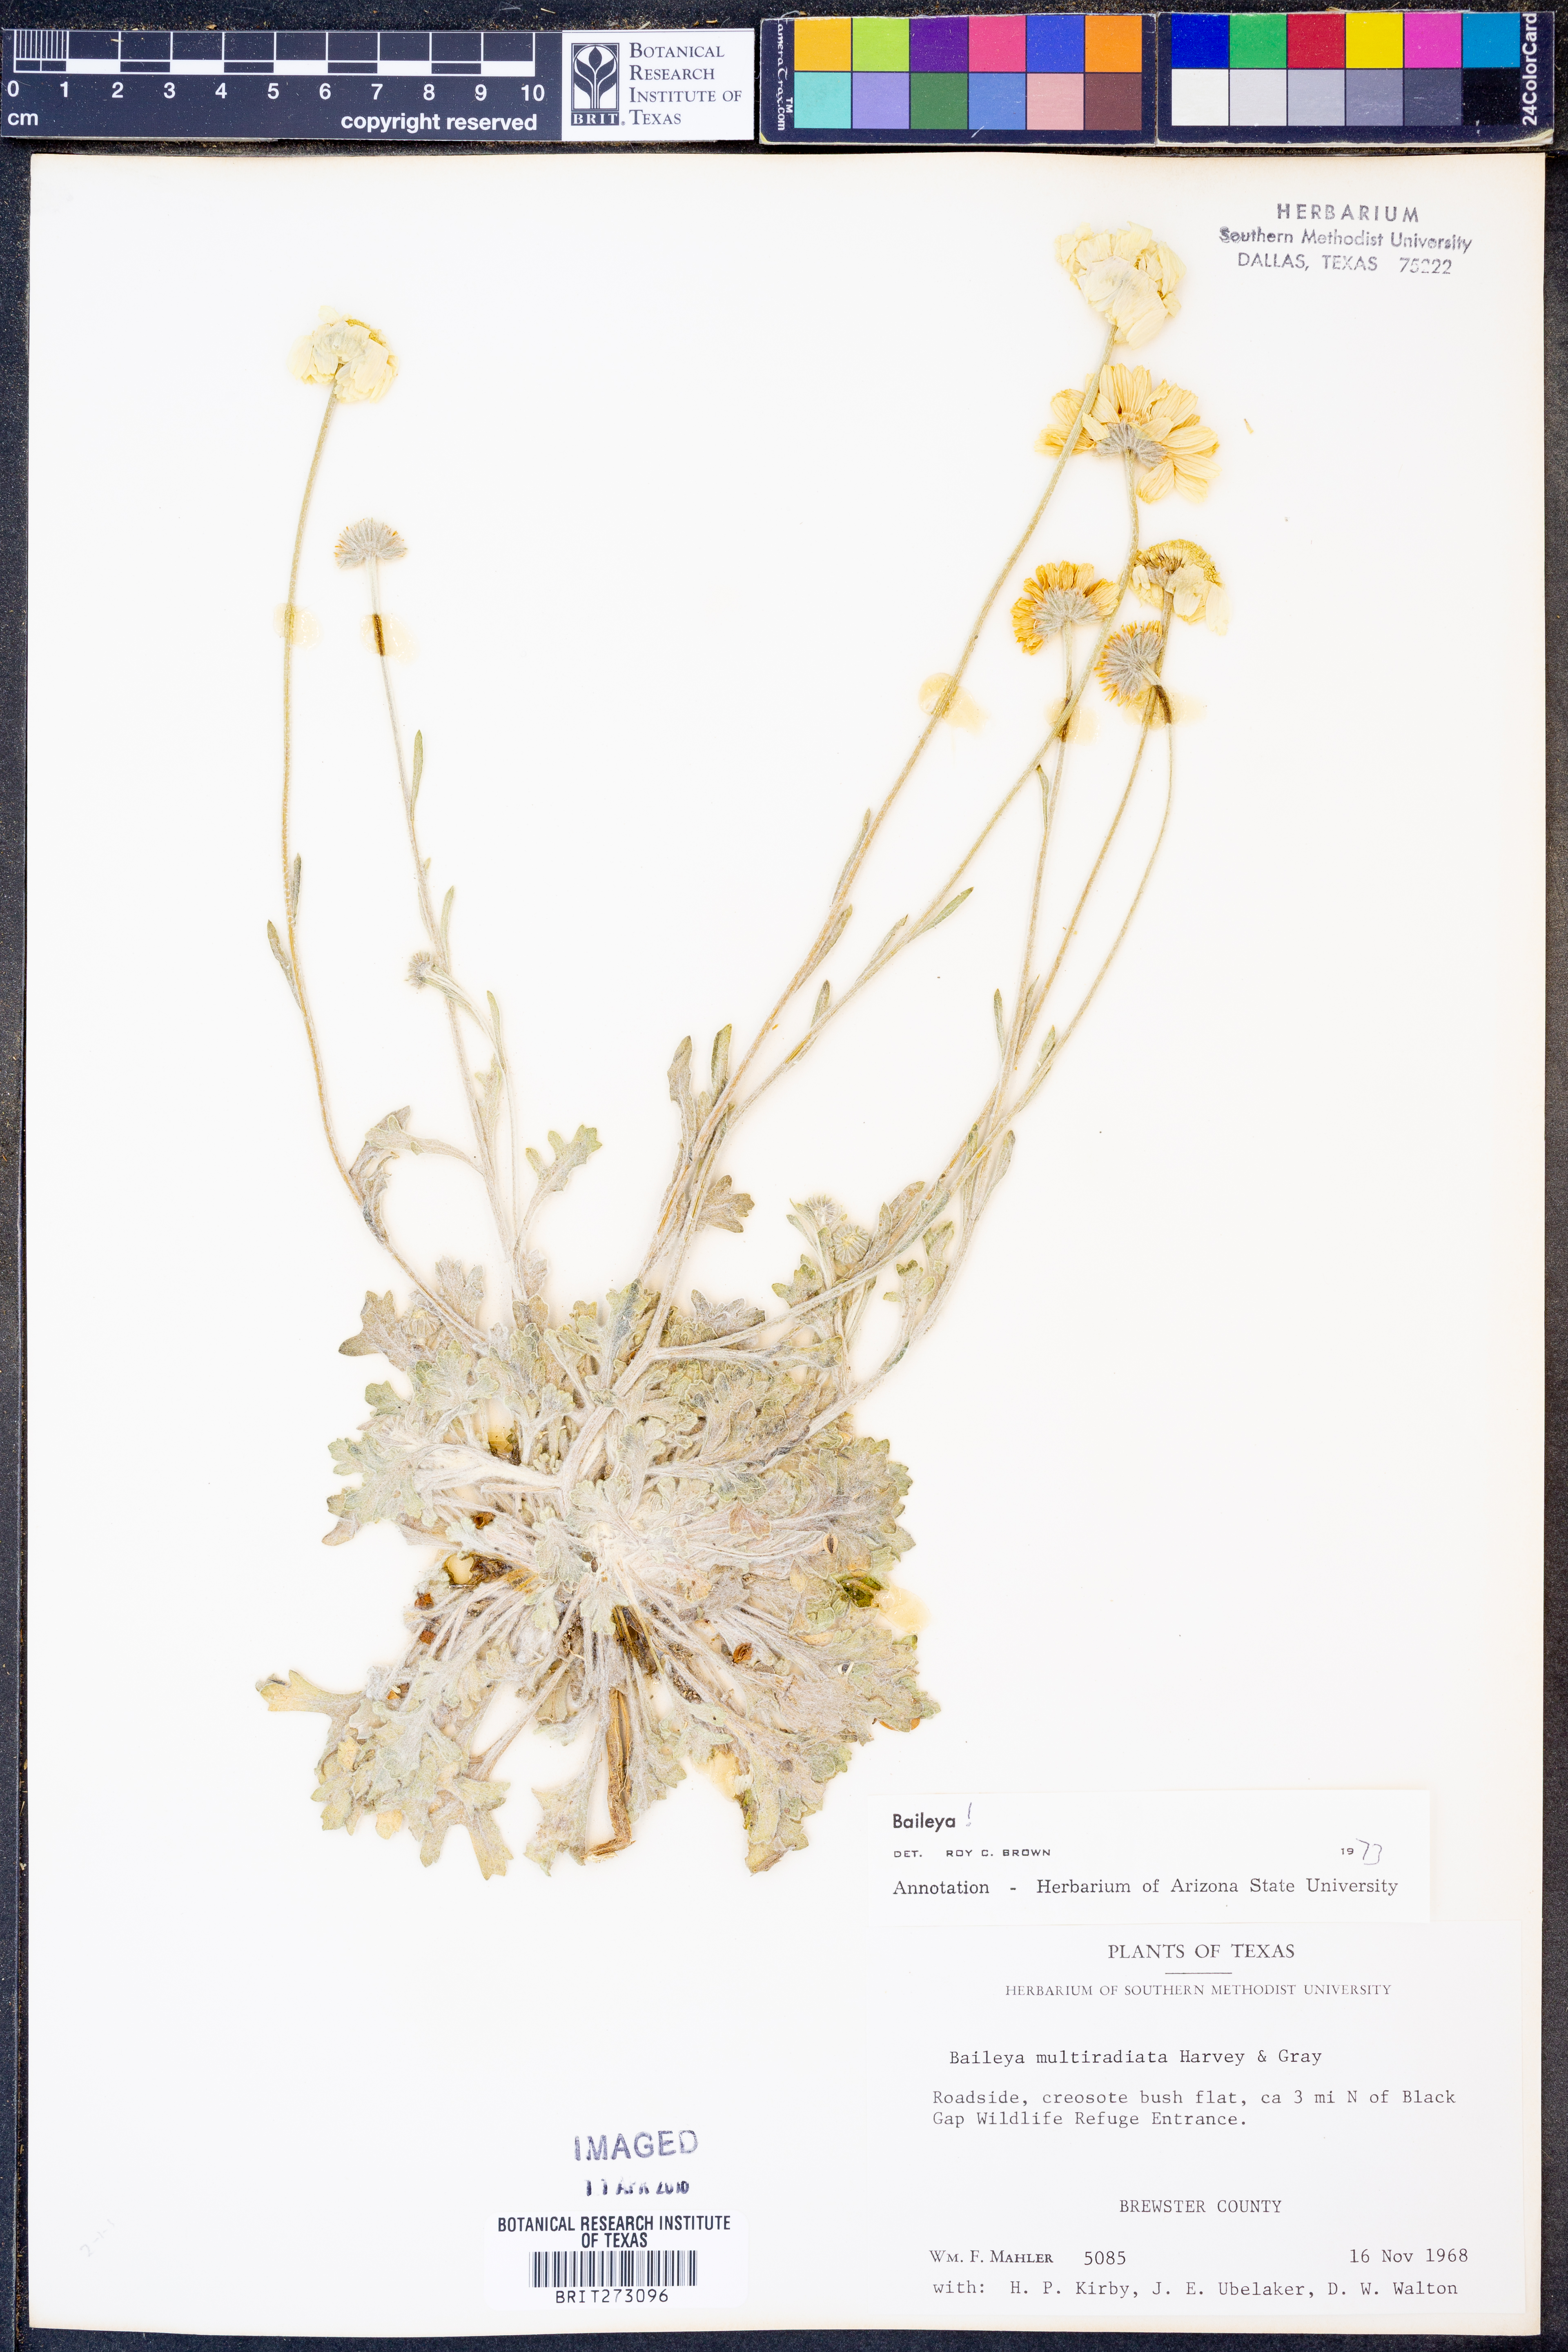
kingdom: Plantae
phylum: Tracheophyta
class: Magnoliopsida
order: Asterales
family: Asteraceae
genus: Baileya
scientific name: Baileya multiradiata
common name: Desert-marigold
